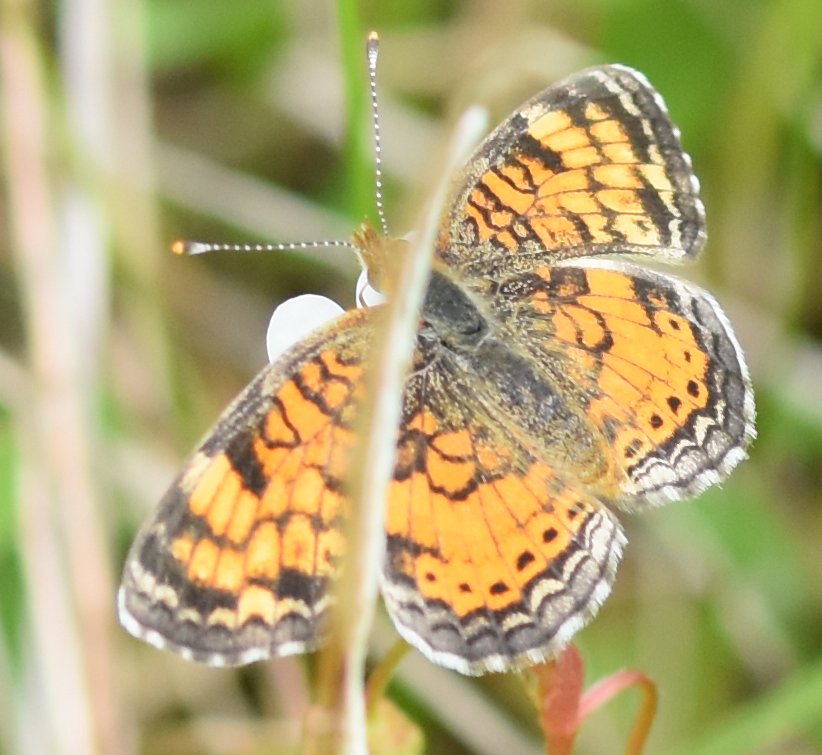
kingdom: Animalia
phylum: Arthropoda
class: Insecta
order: Lepidoptera
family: Nymphalidae
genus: Phyciodes
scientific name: Phyciodes tharos
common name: Northern Crescent
